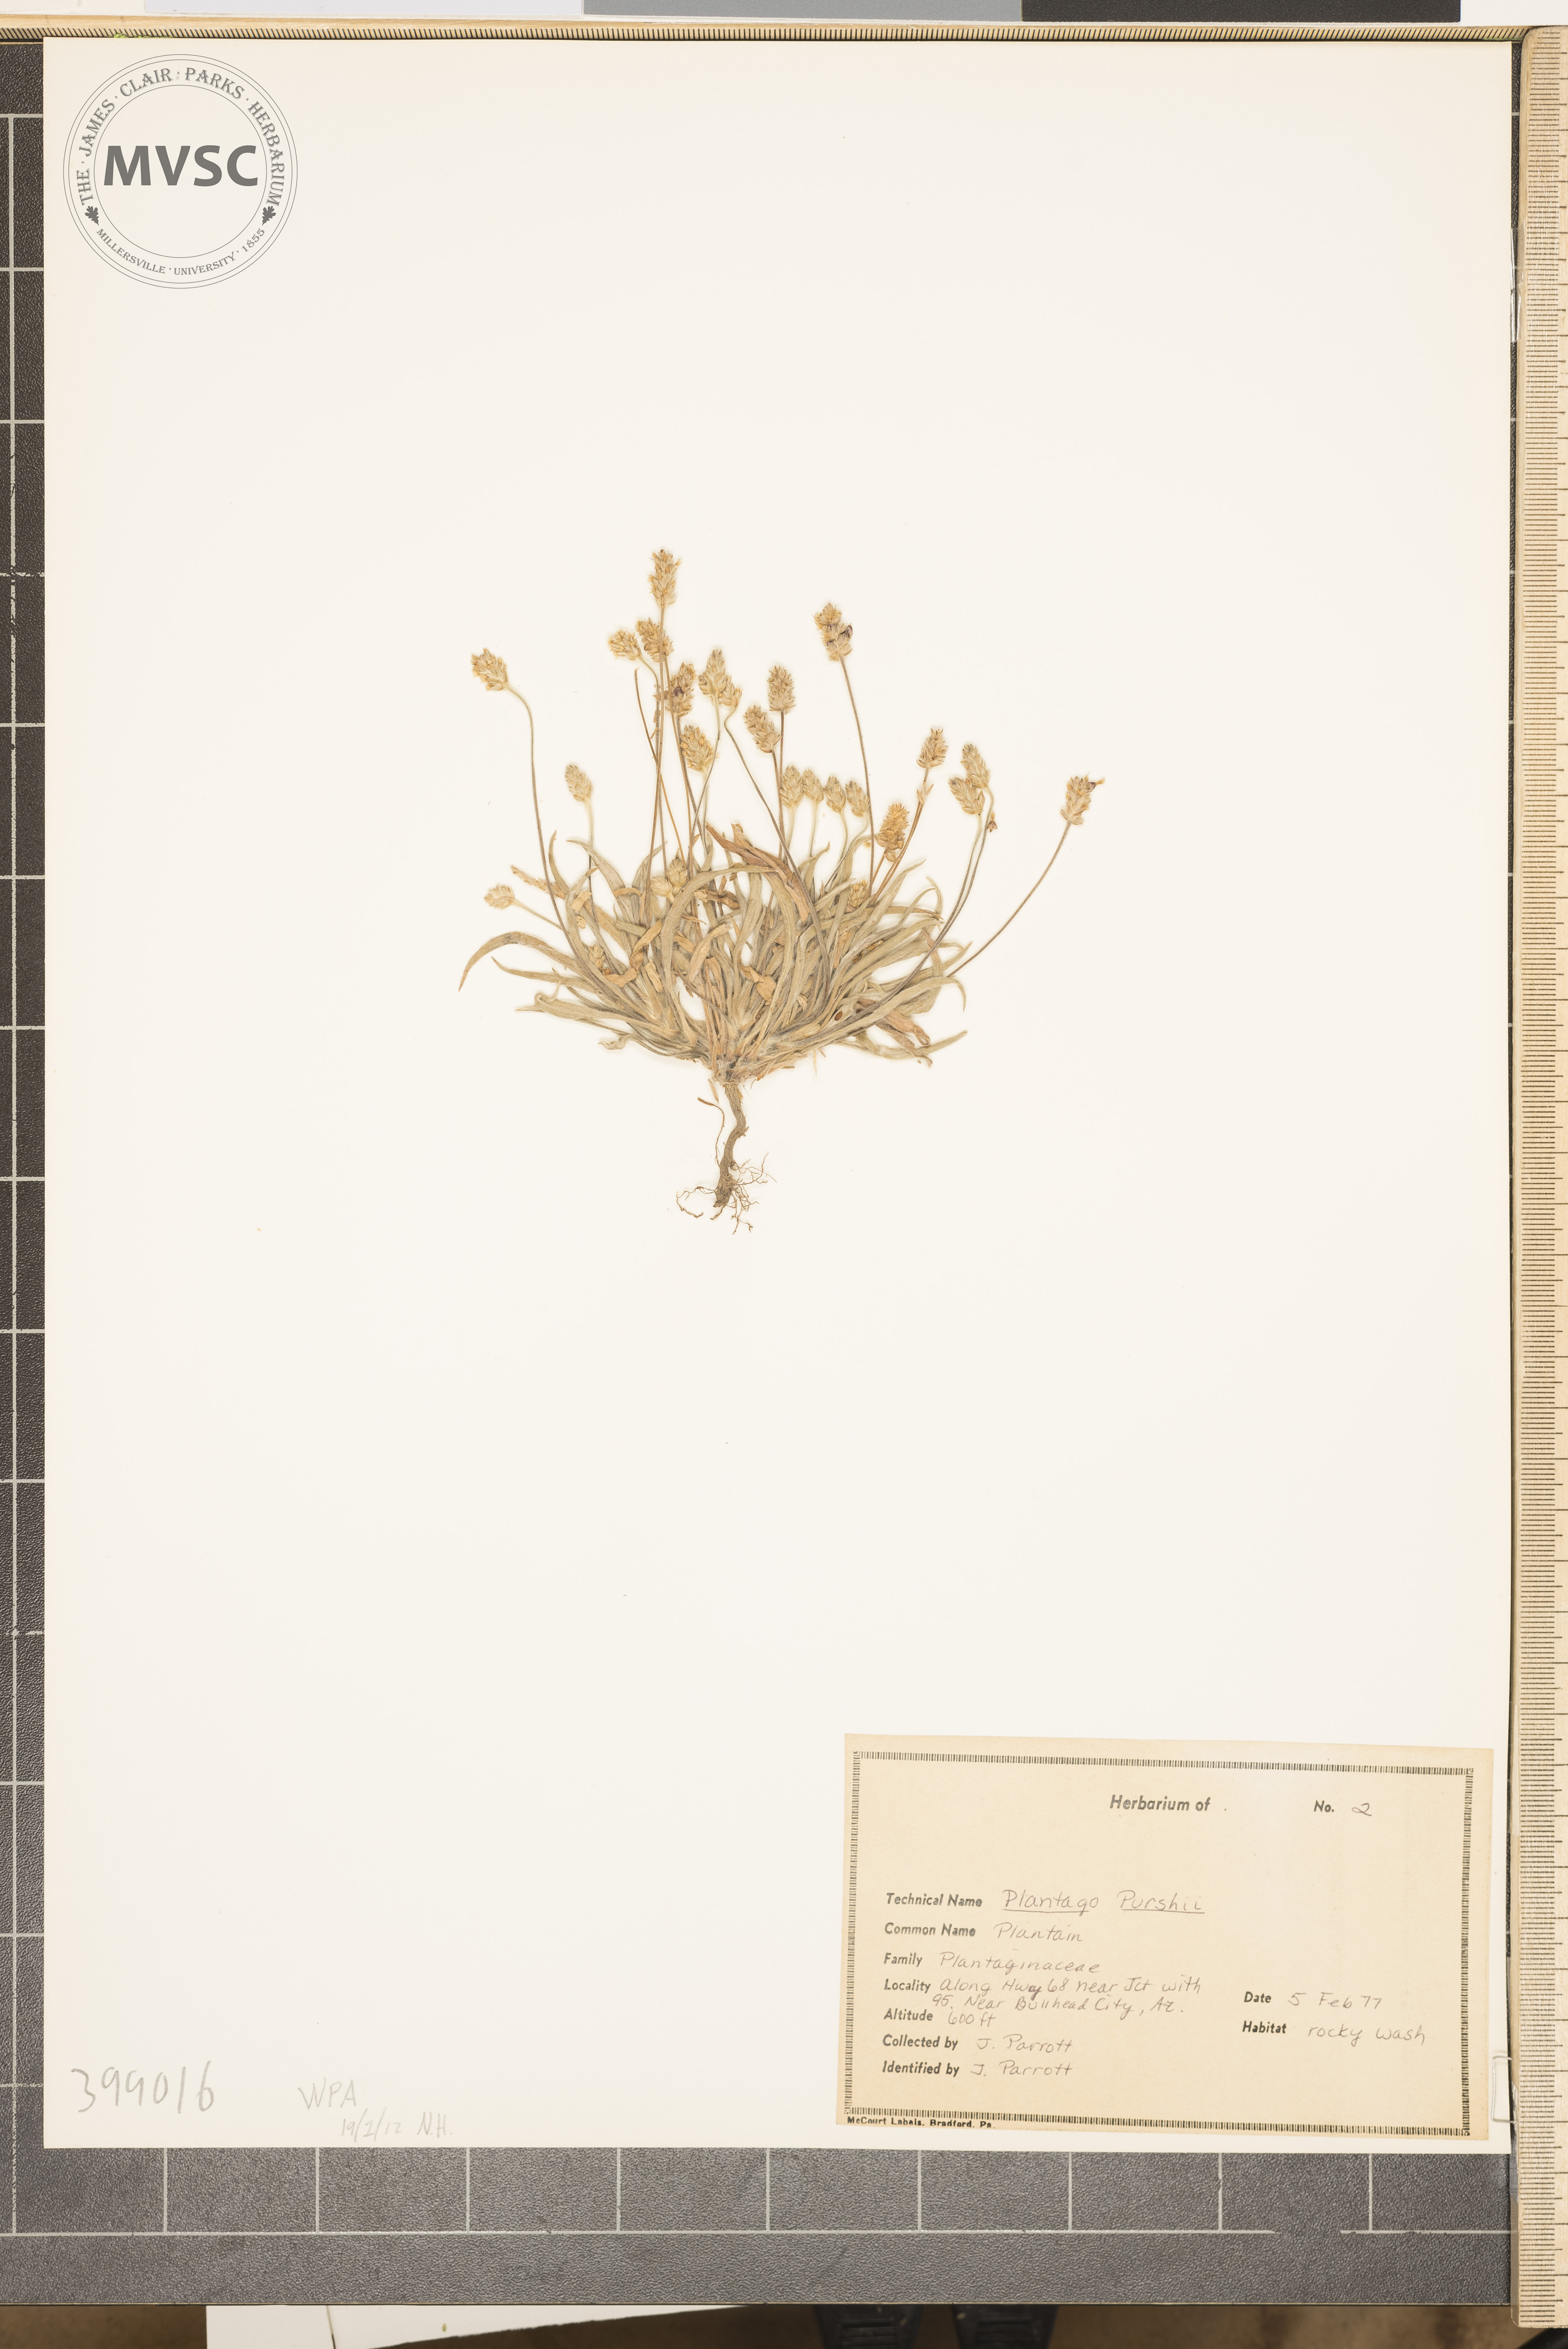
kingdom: Plantae
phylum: Tracheophyta
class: Magnoliopsida
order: Lamiales
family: Plantaginaceae
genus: Plantago
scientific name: Plantago patagonica
